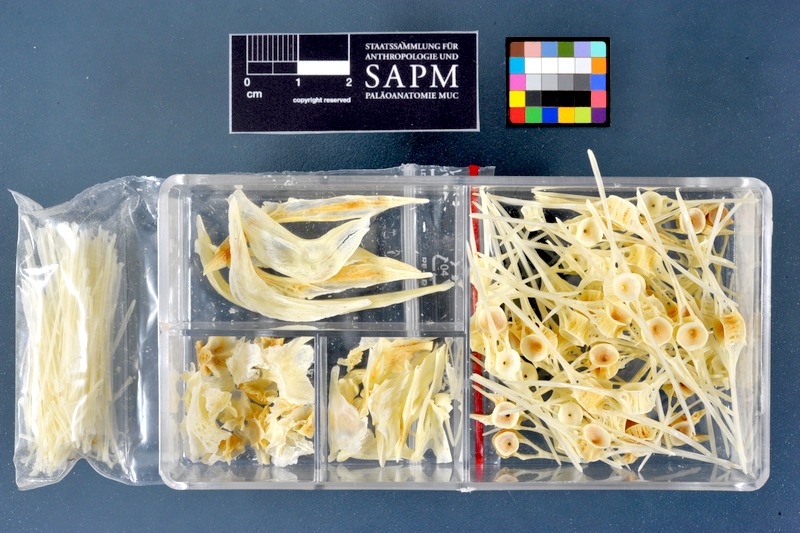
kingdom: Animalia
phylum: Chordata
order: Pleuronectiformes
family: Pleuronectidae
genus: Glyptocephalus
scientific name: Glyptocephalus cynoglossus
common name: Witch
